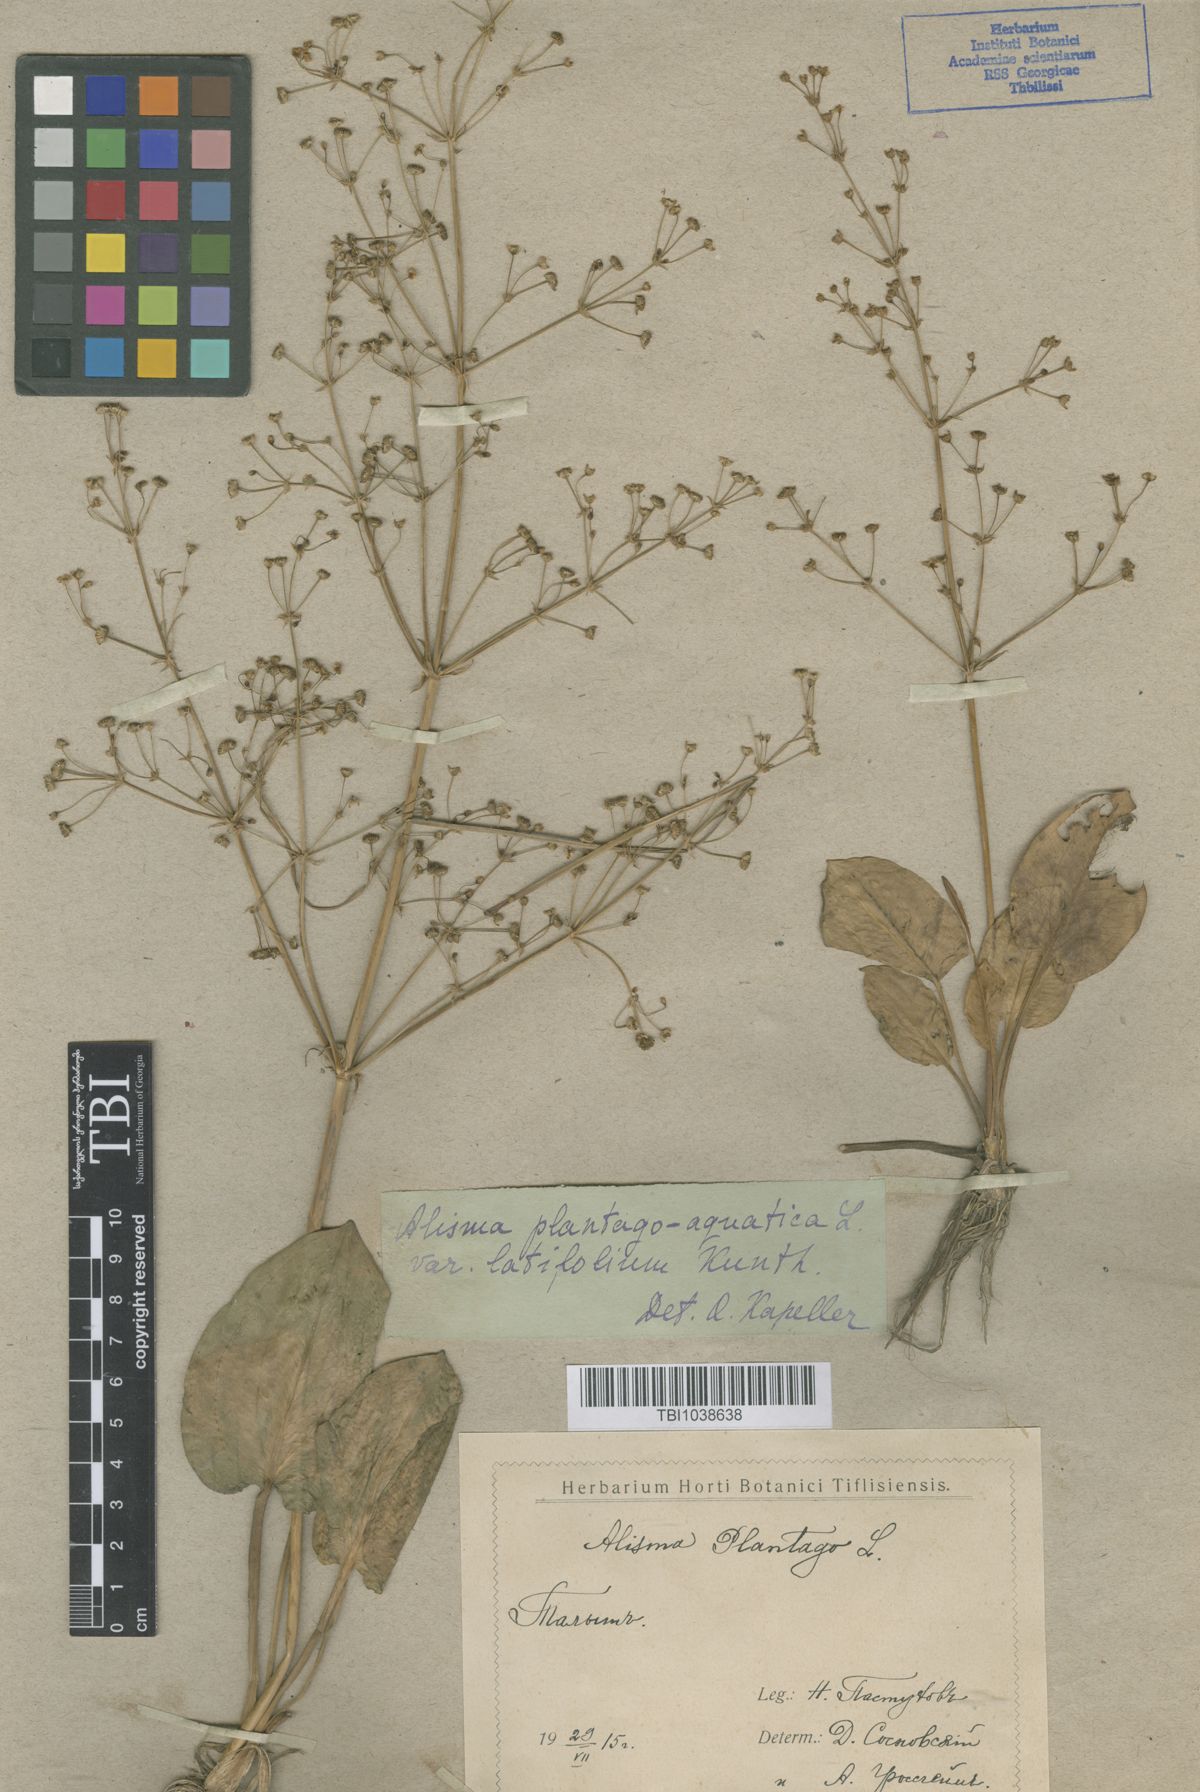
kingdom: Plantae
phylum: Tracheophyta
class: Liliopsida
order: Alismatales
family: Alismataceae
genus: Alisma
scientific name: Alisma plantago-aquatica
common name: Water-plantain
